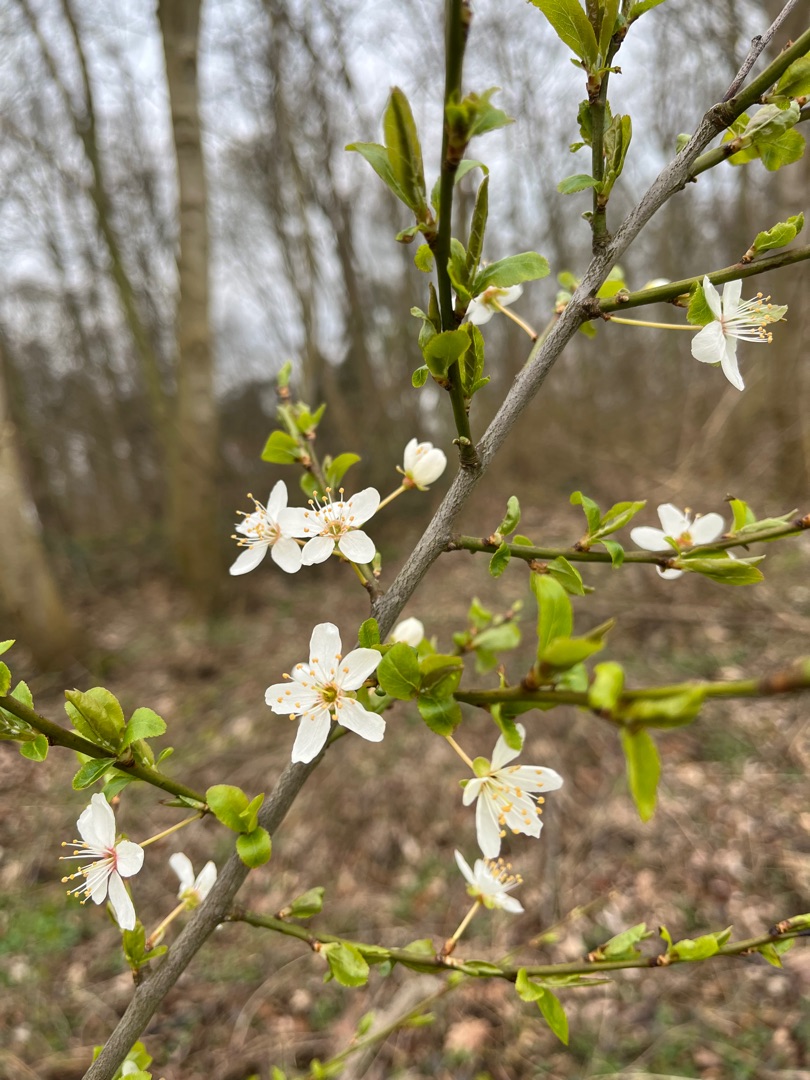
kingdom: Plantae
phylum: Tracheophyta
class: Magnoliopsida
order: Rosales
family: Rosaceae
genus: Prunus
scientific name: Prunus cerasifera
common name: Mirabel
